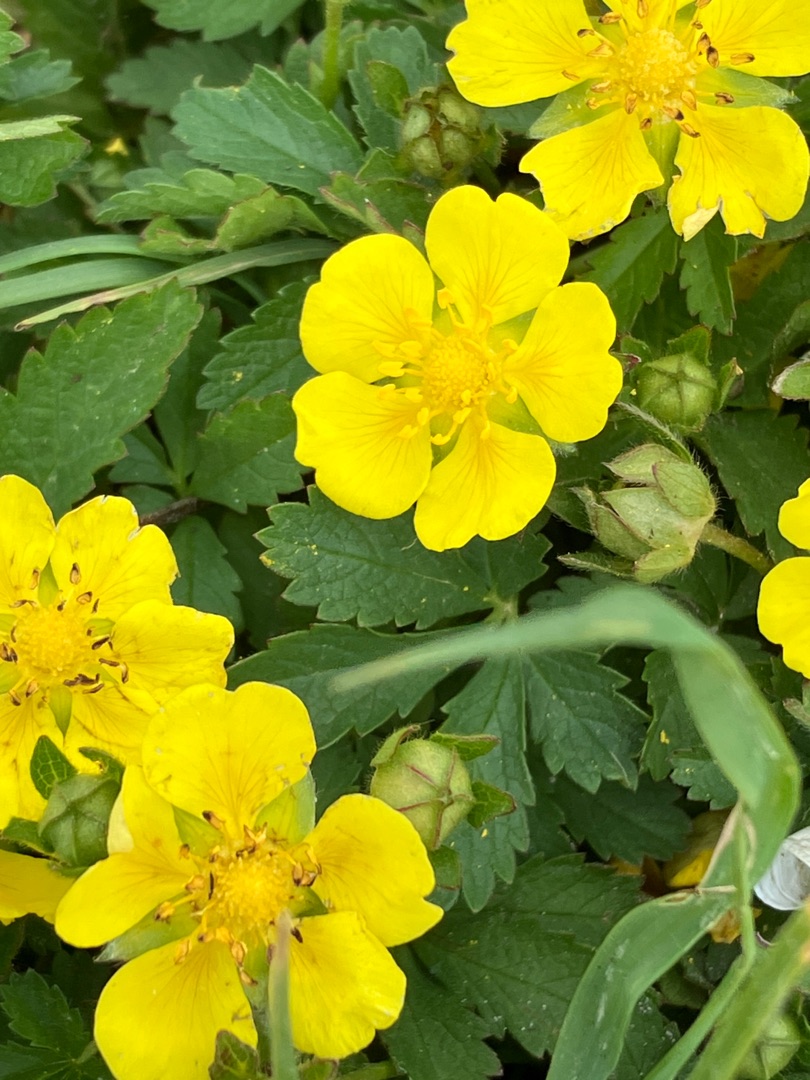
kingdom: Plantae
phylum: Tracheophyta
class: Magnoliopsida
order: Rosales
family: Rosaceae
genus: Potentilla
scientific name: Potentilla reptans
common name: Krybende potentil
